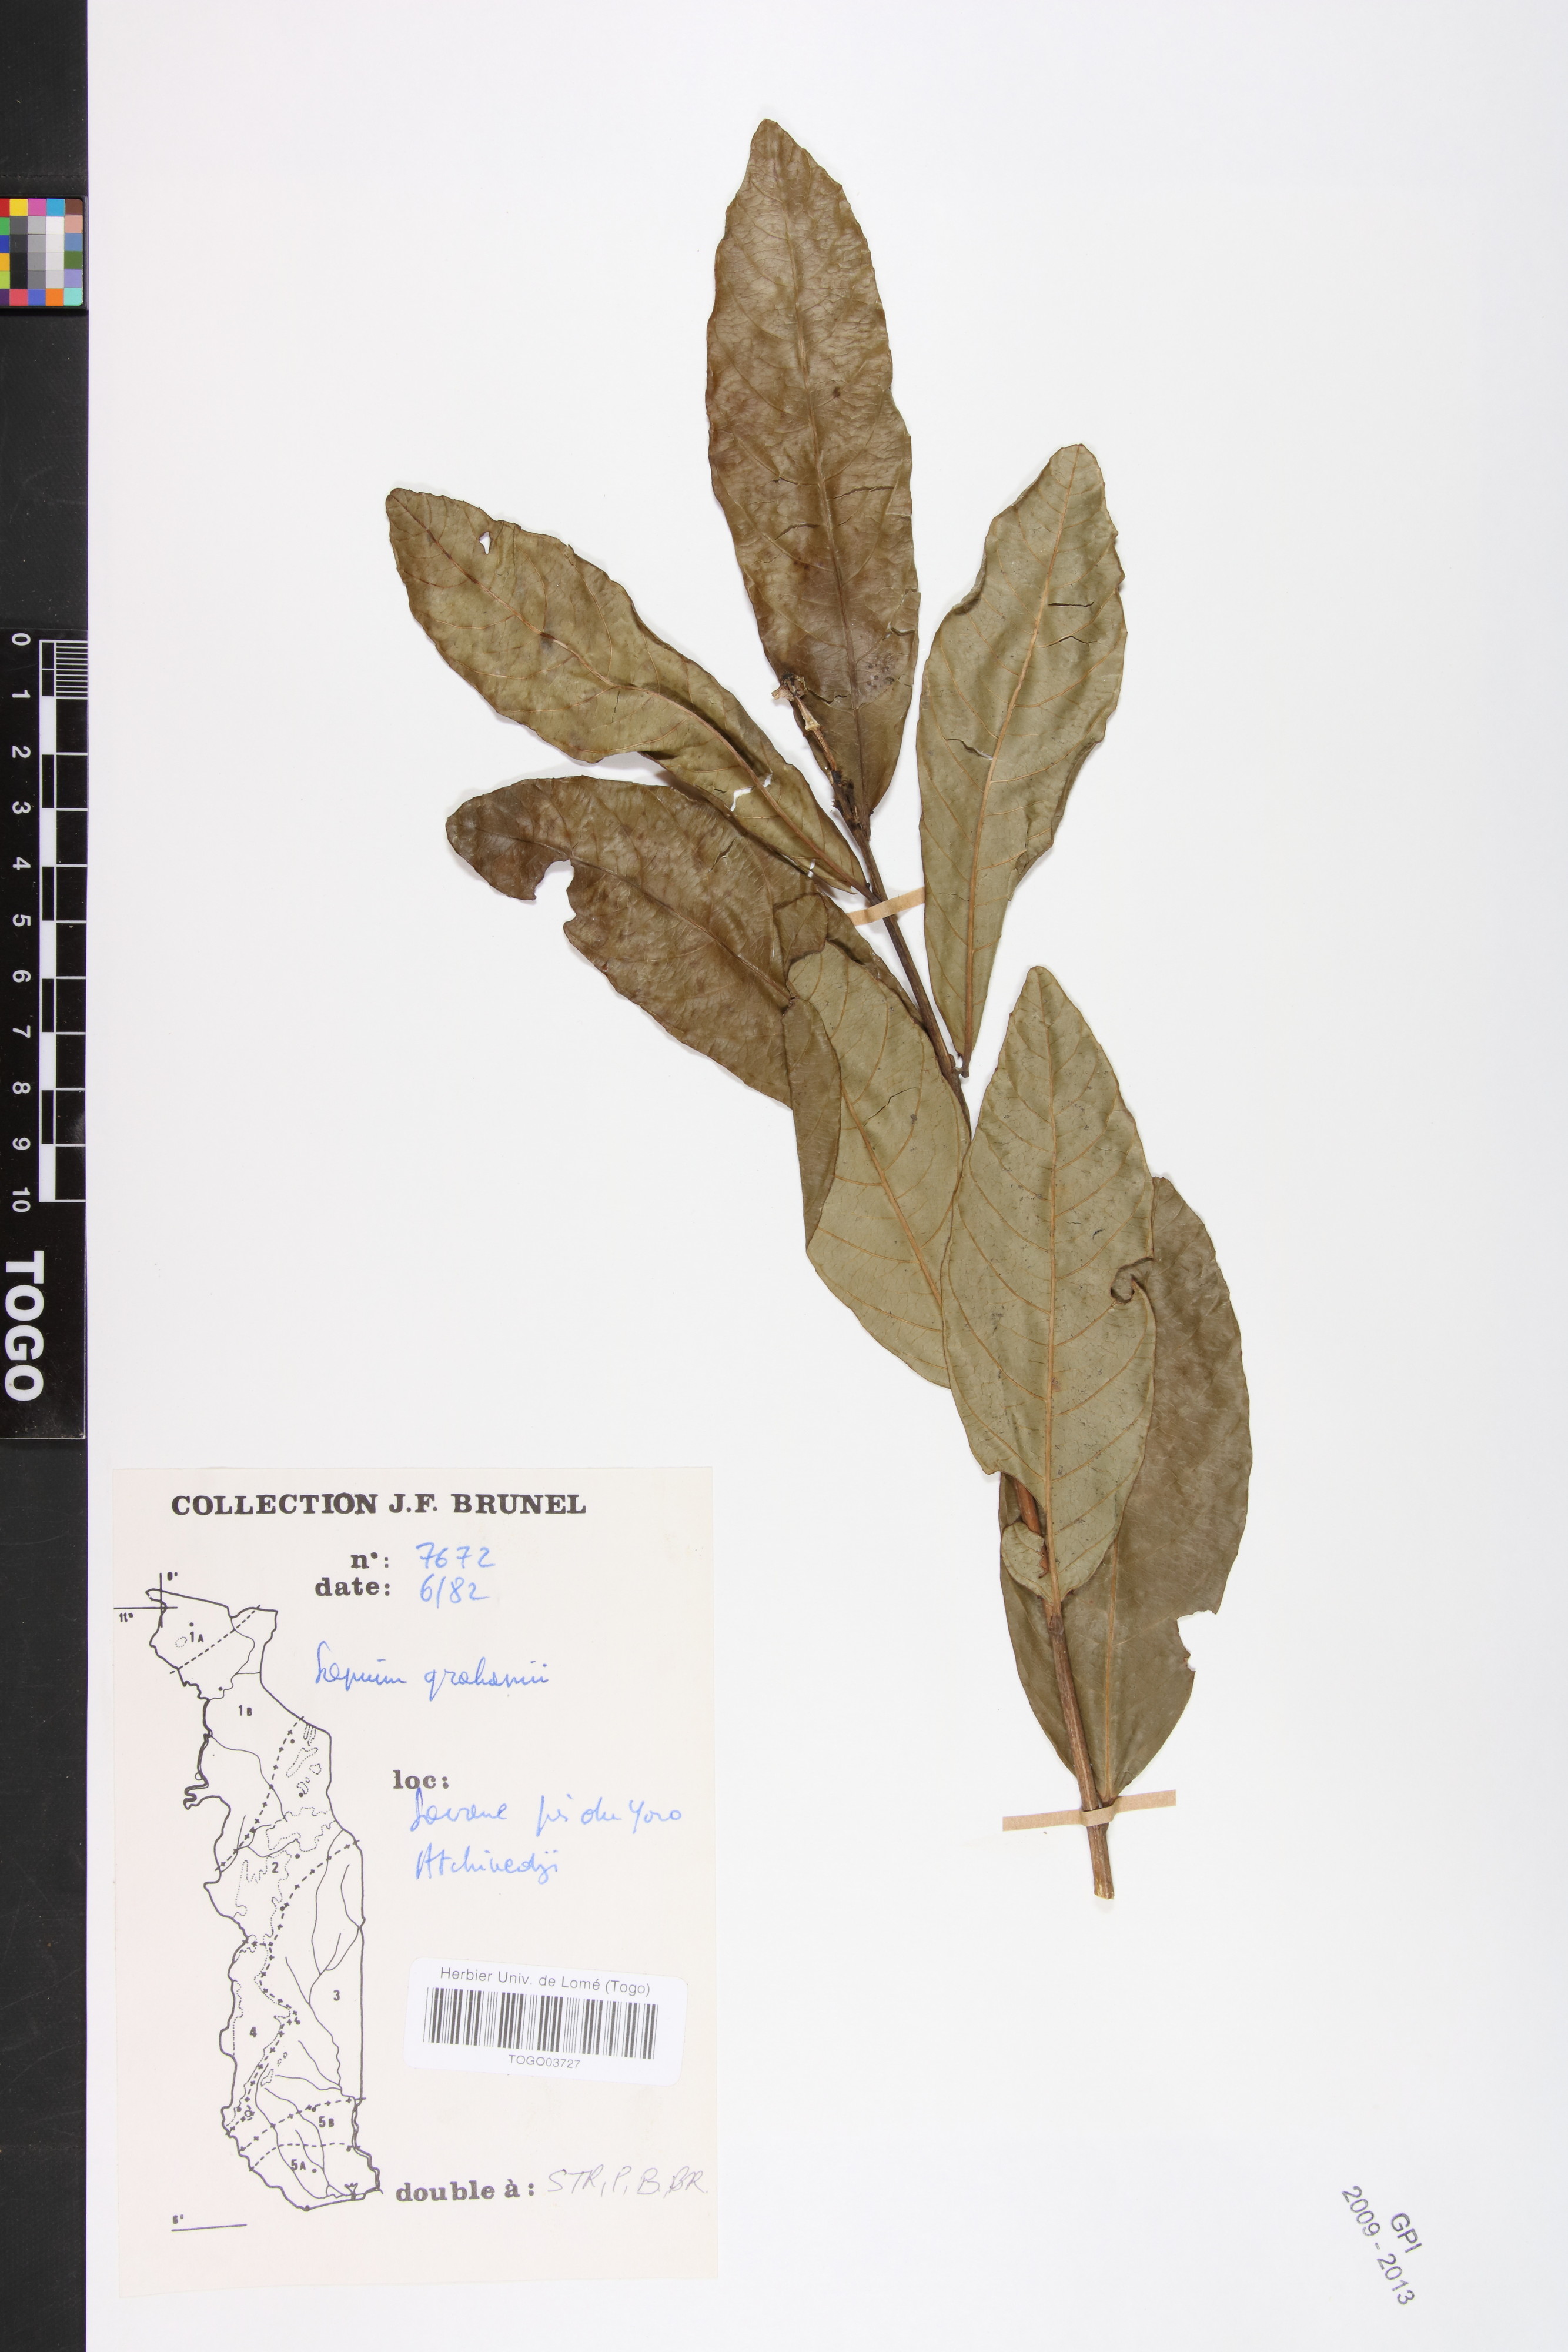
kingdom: Plantae
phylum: Tracheophyta
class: Magnoliopsida
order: Malpighiales
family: Euphorbiaceae
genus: Excoecaria
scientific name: Excoecaria grahamii
